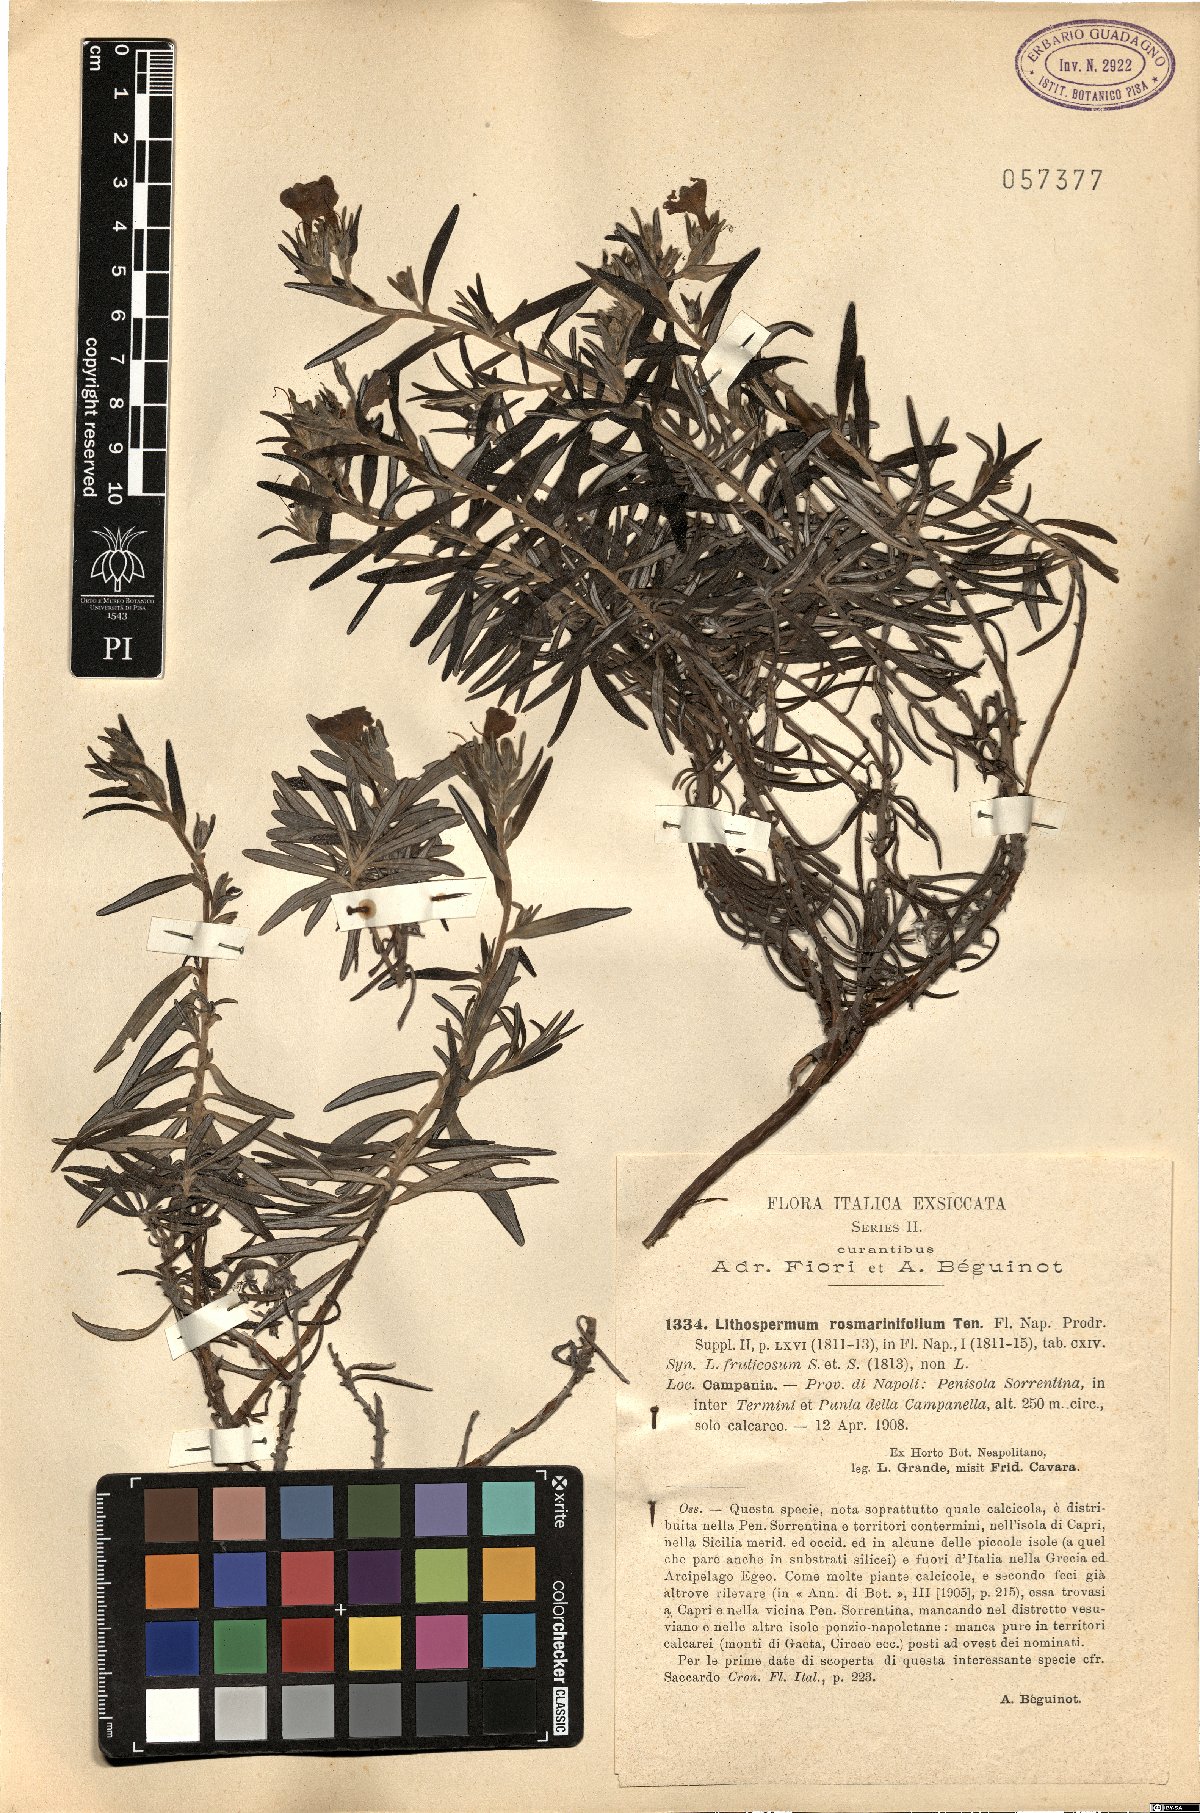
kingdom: Plantae
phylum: Tracheophyta
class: Magnoliopsida
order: Boraginales
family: Boraginaceae
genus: Glandora
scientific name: Glandora rosmarinifolia
